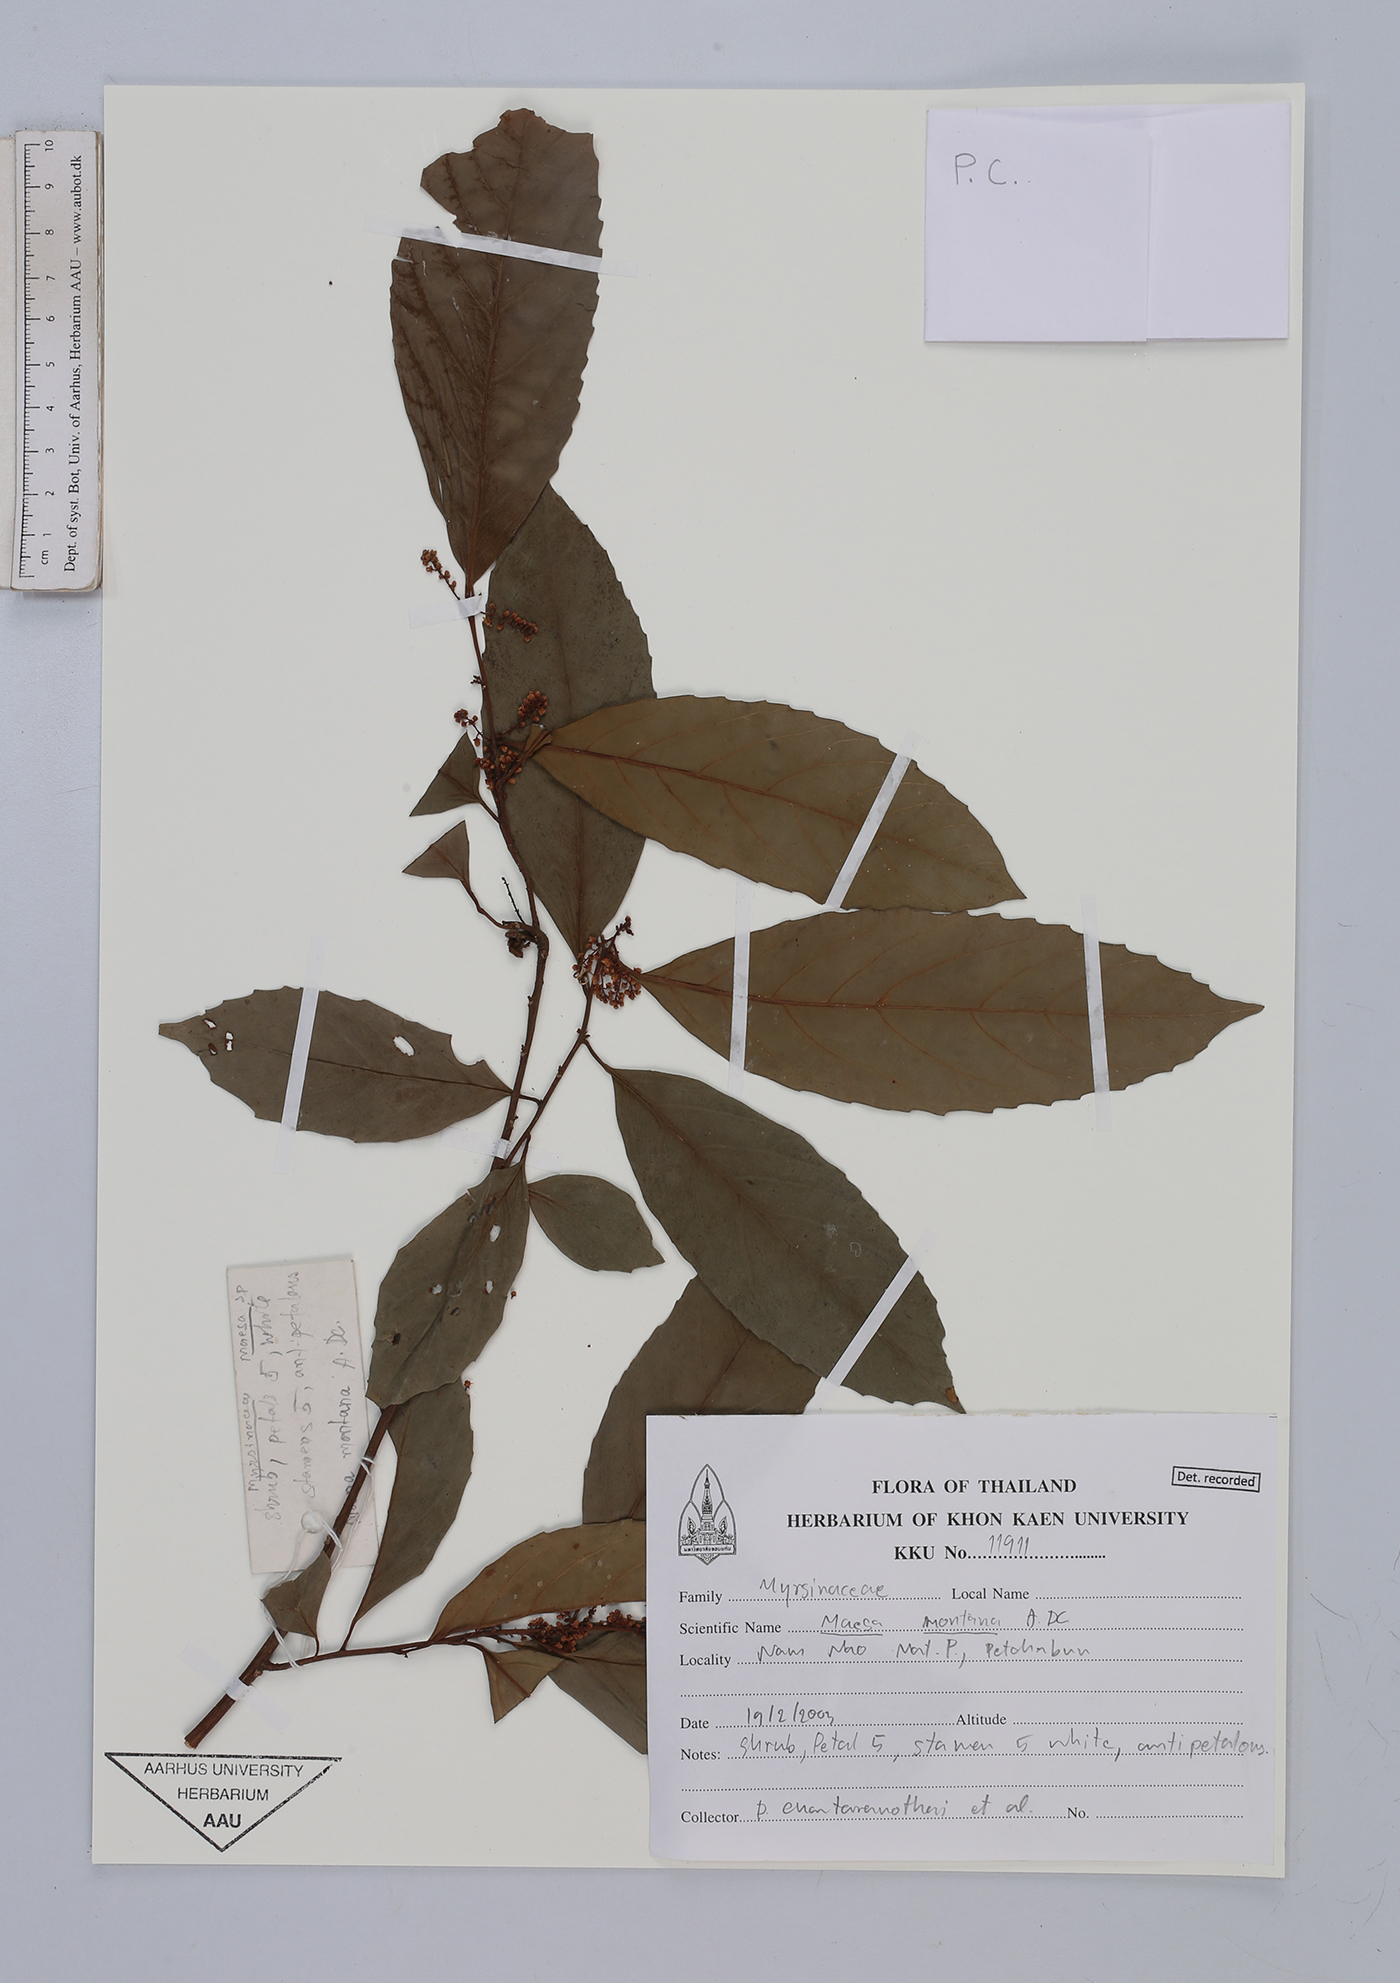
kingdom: Plantae
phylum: Tracheophyta
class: Magnoliopsida
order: Ericales
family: Primulaceae
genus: Maesa
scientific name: Maesa montana
